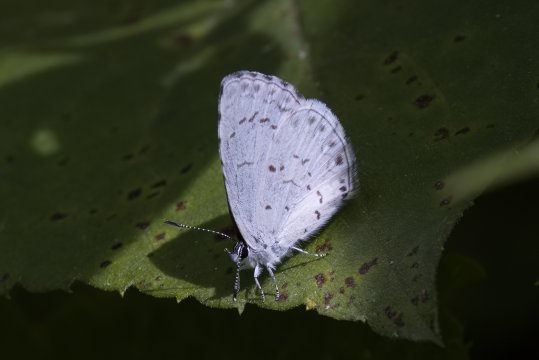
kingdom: Animalia
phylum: Arthropoda
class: Insecta
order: Lepidoptera
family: Lycaenidae
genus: Cyaniris
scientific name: Cyaniris neglecta
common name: Summer Azure
